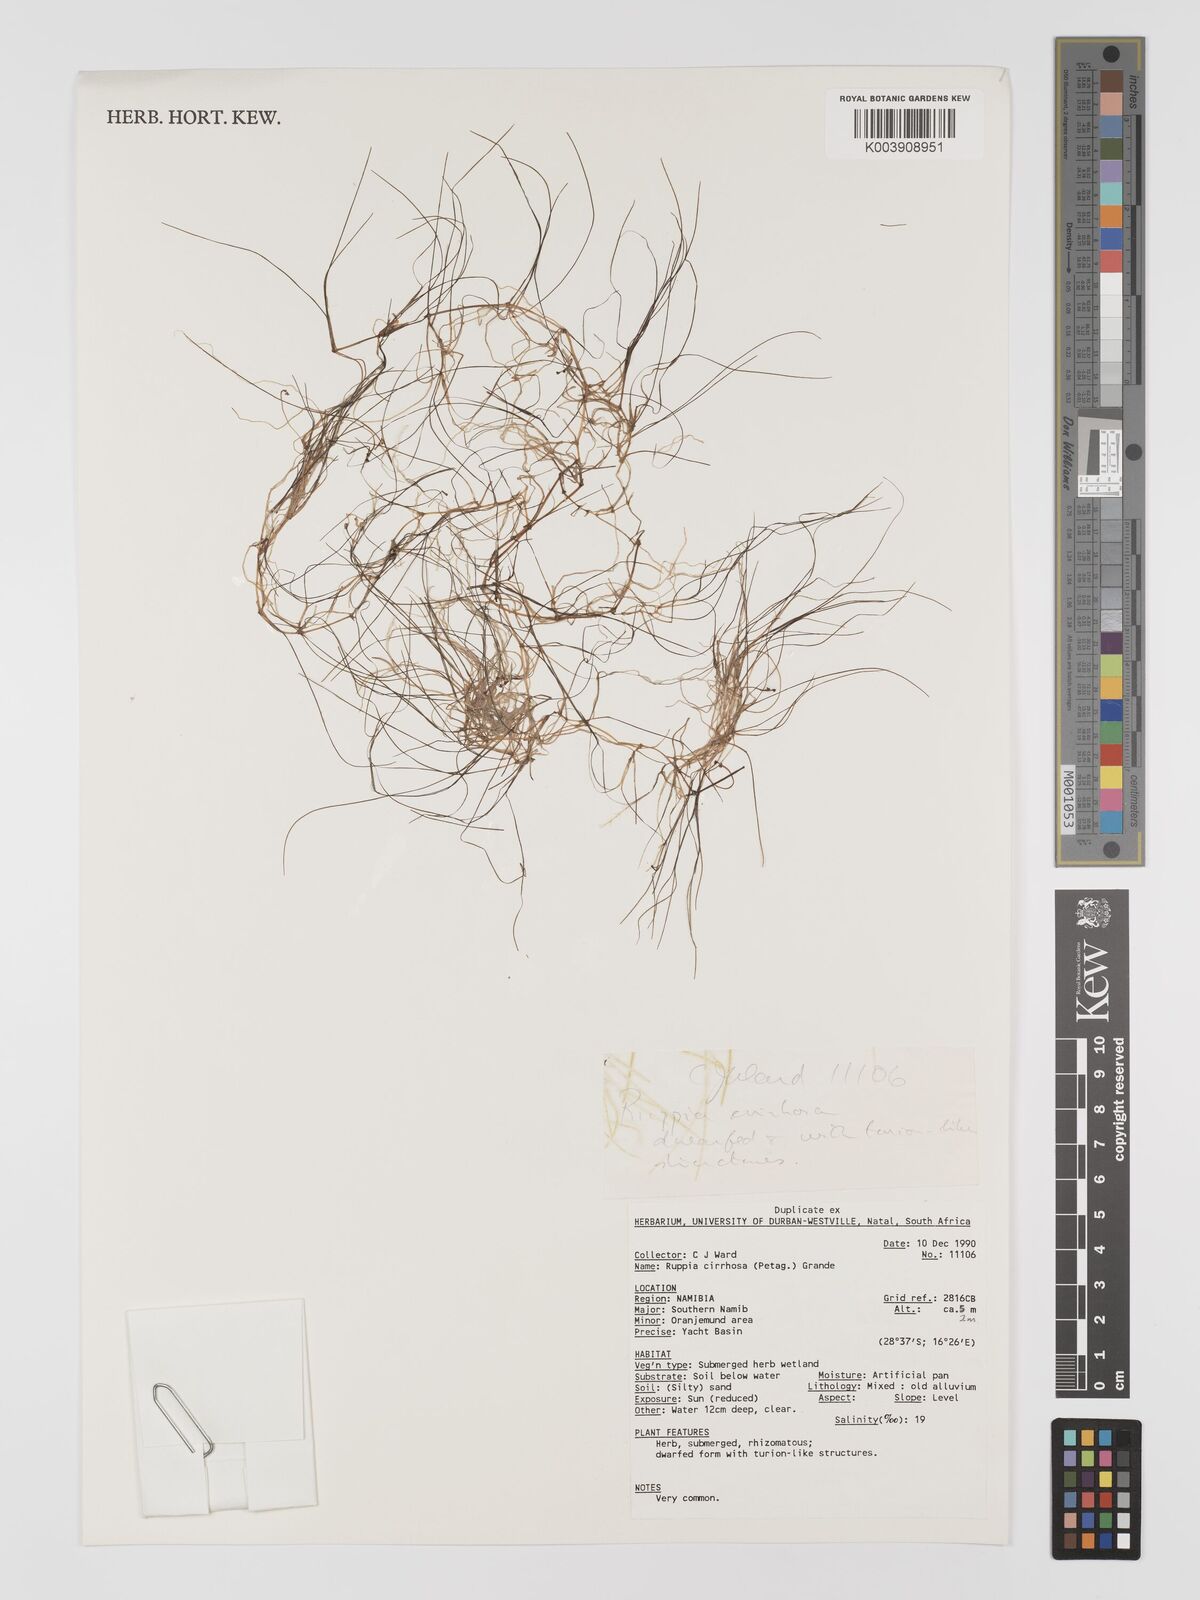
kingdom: Plantae
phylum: Tracheophyta
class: Liliopsida
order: Alismatales
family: Ruppiaceae
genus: Ruppia
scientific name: Ruppia cirrhosa
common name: Spiral tasselweed
